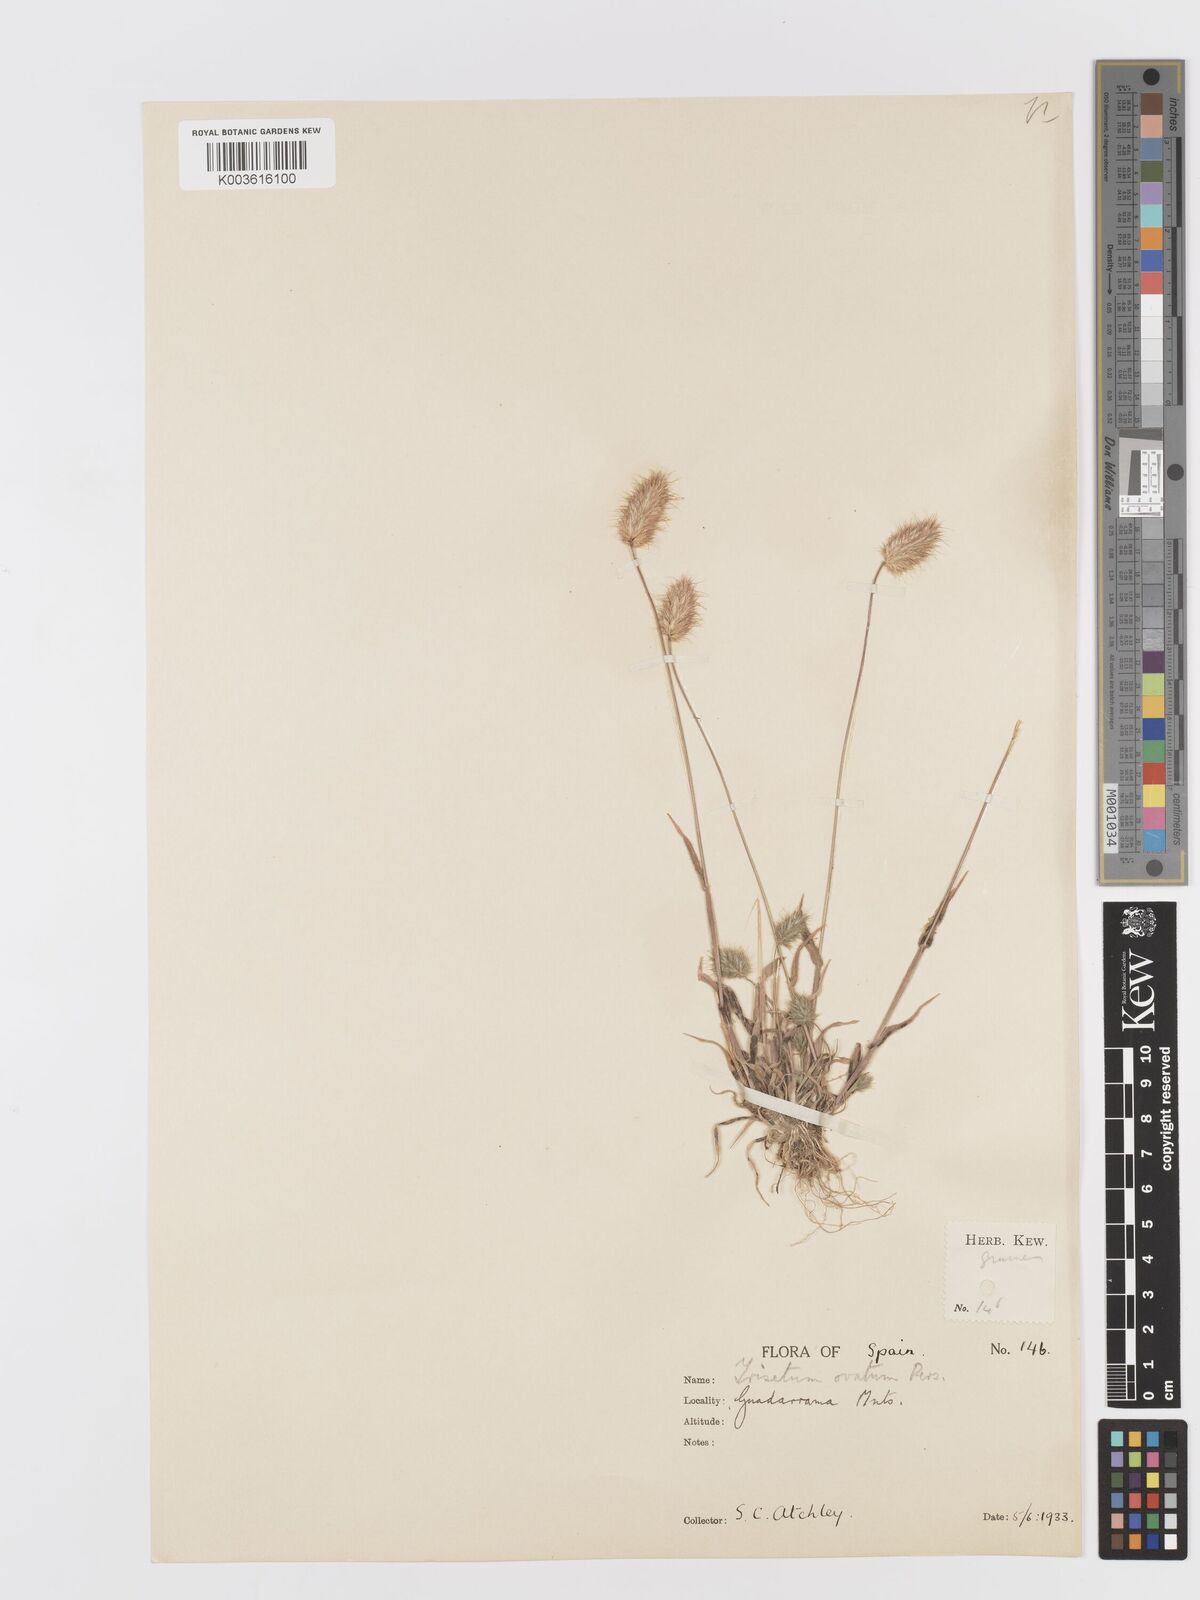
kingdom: Plantae
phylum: Tracheophyta
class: Liliopsida
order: Poales
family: Poaceae
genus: Trisetaria
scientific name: Trisetaria ovata
